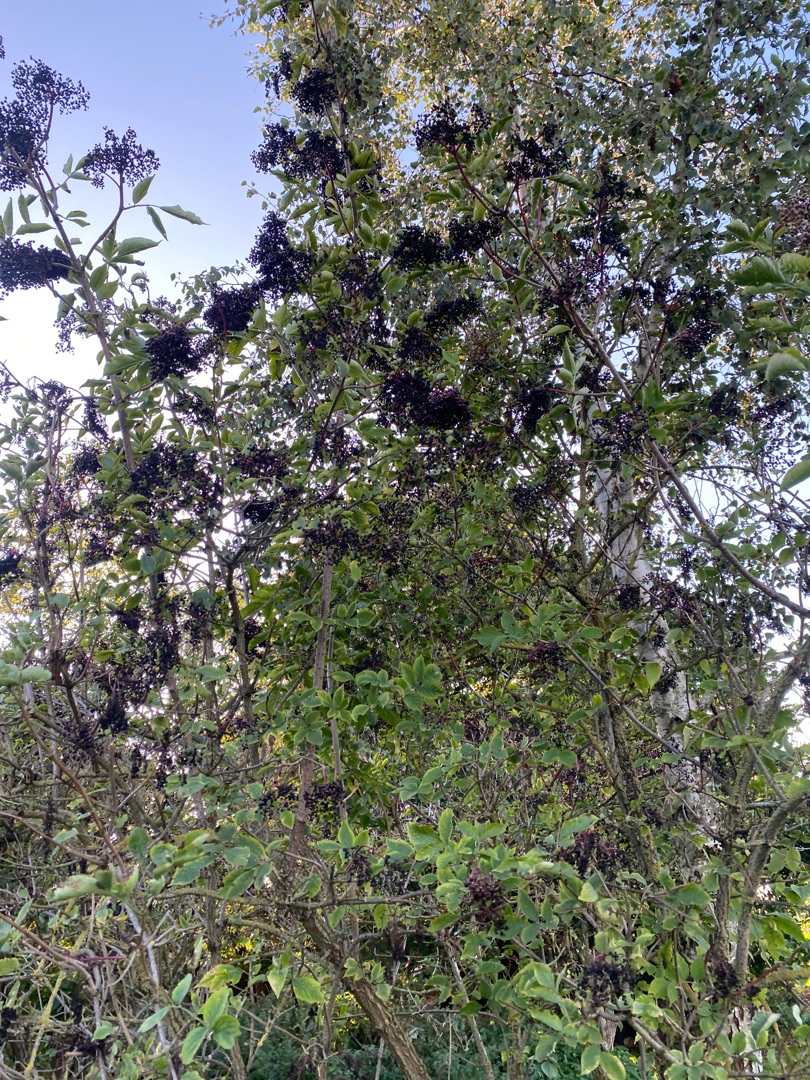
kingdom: Plantae
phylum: Tracheophyta
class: Magnoliopsida
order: Dipsacales
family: Viburnaceae
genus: Sambucus
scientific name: Sambucus nigra
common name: Almindelig hyld
